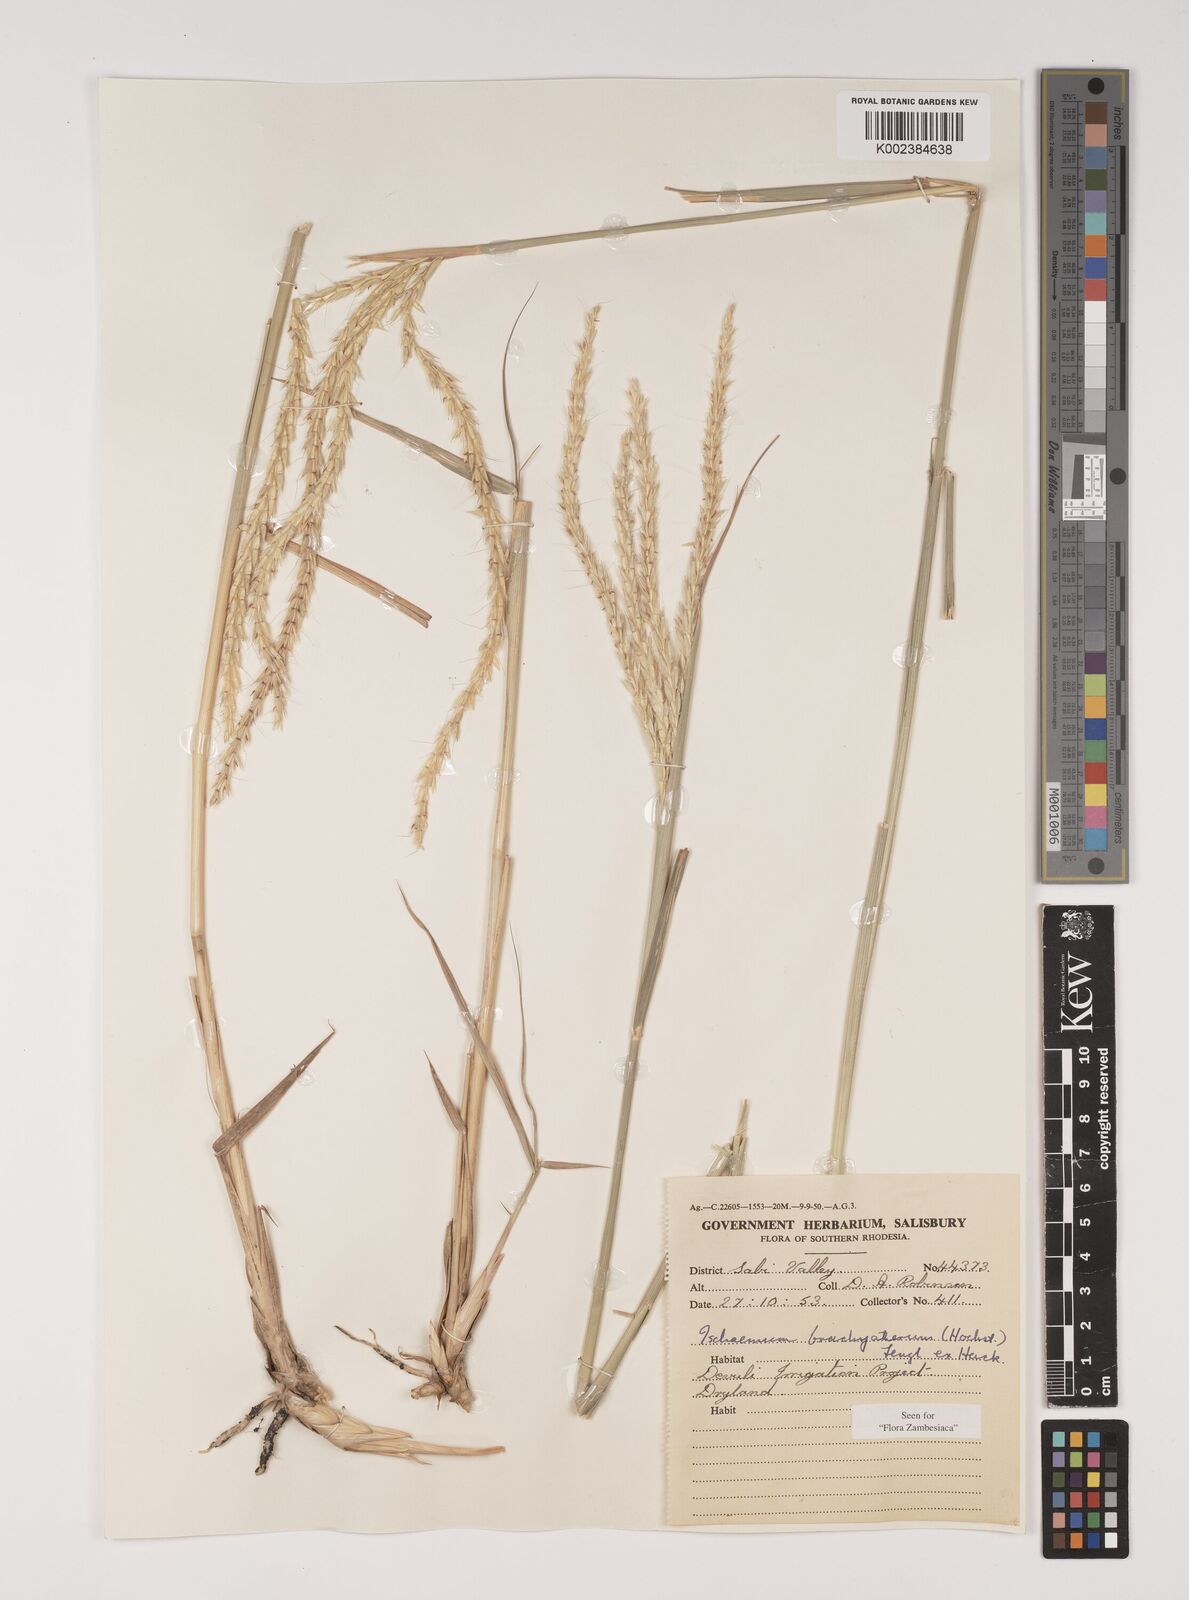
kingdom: Plantae
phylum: Tracheophyta
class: Liliopsida
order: Poales
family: Poaceae
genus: Ischaemum
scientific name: Ischaemum afrum
